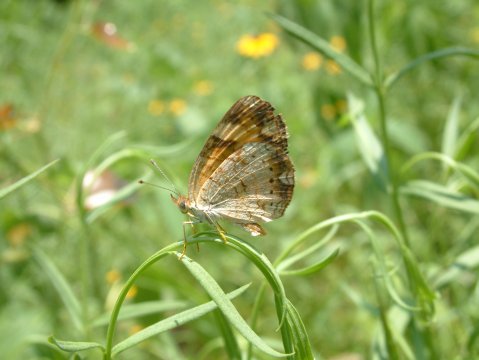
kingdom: Animalia
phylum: Arthropoda
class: Insecta
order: Lepidoptera
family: Nymphalidae
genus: Phyciodes
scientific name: Phyciodes phaon
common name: Phaon Crescent
